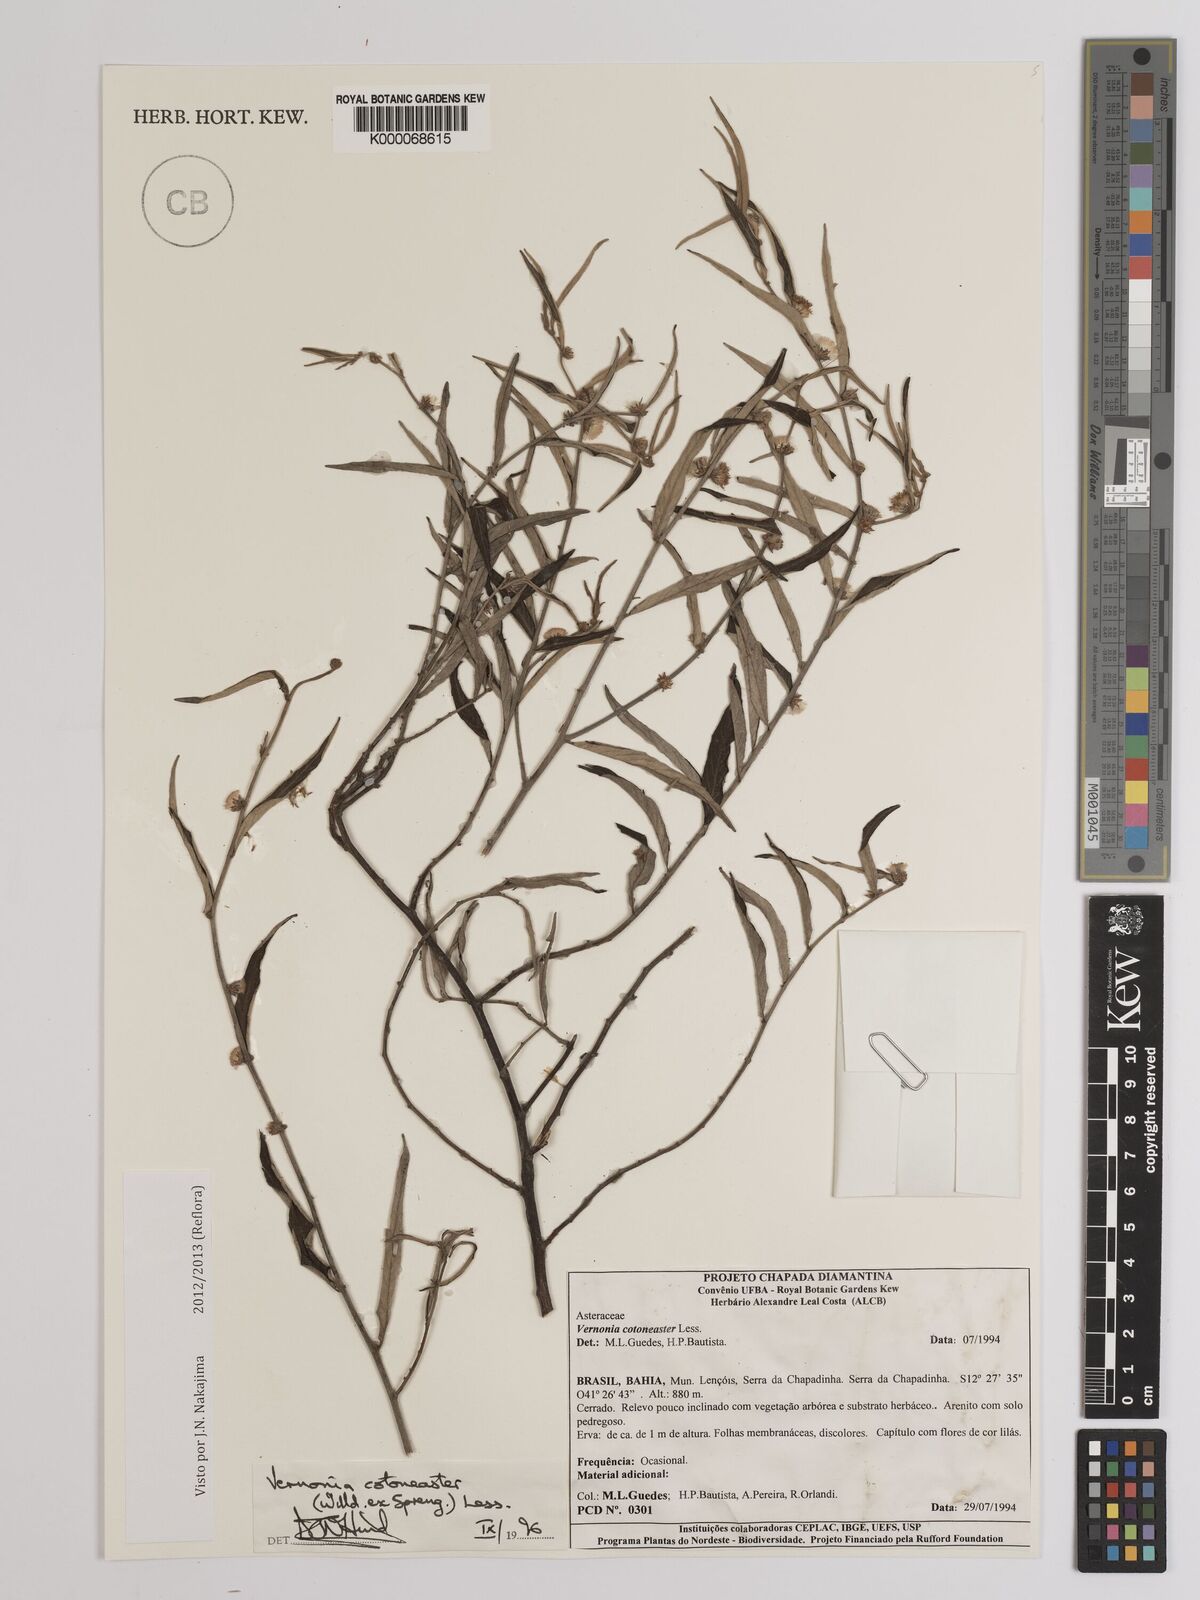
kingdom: Plantae
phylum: Tracheophyta
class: Magnoliopsida
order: Asterales
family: Asteraceae
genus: Lepidaploa
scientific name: Lepidaploa cotoneaster
